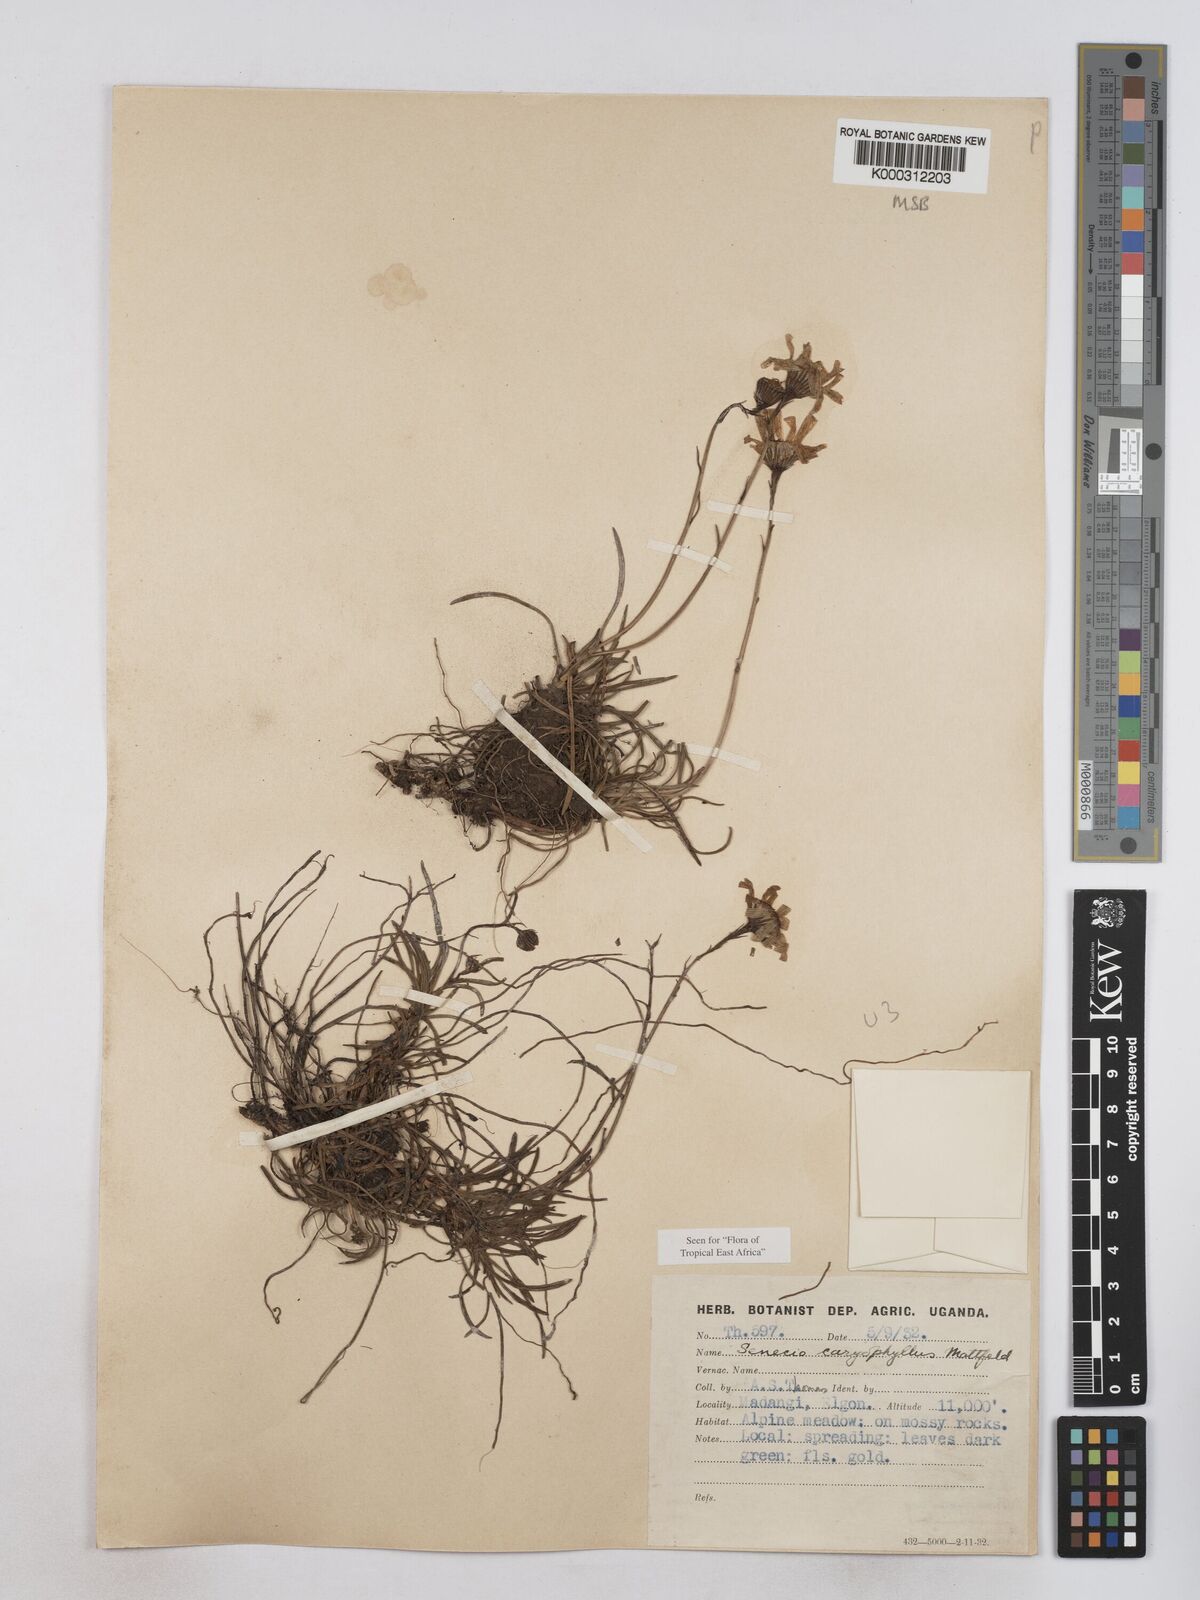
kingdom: Plantae
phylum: Tracheophyta
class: Magnoliopsida
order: Asterales
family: Asteraceae
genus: Senecio
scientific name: Senecio jacksonii
